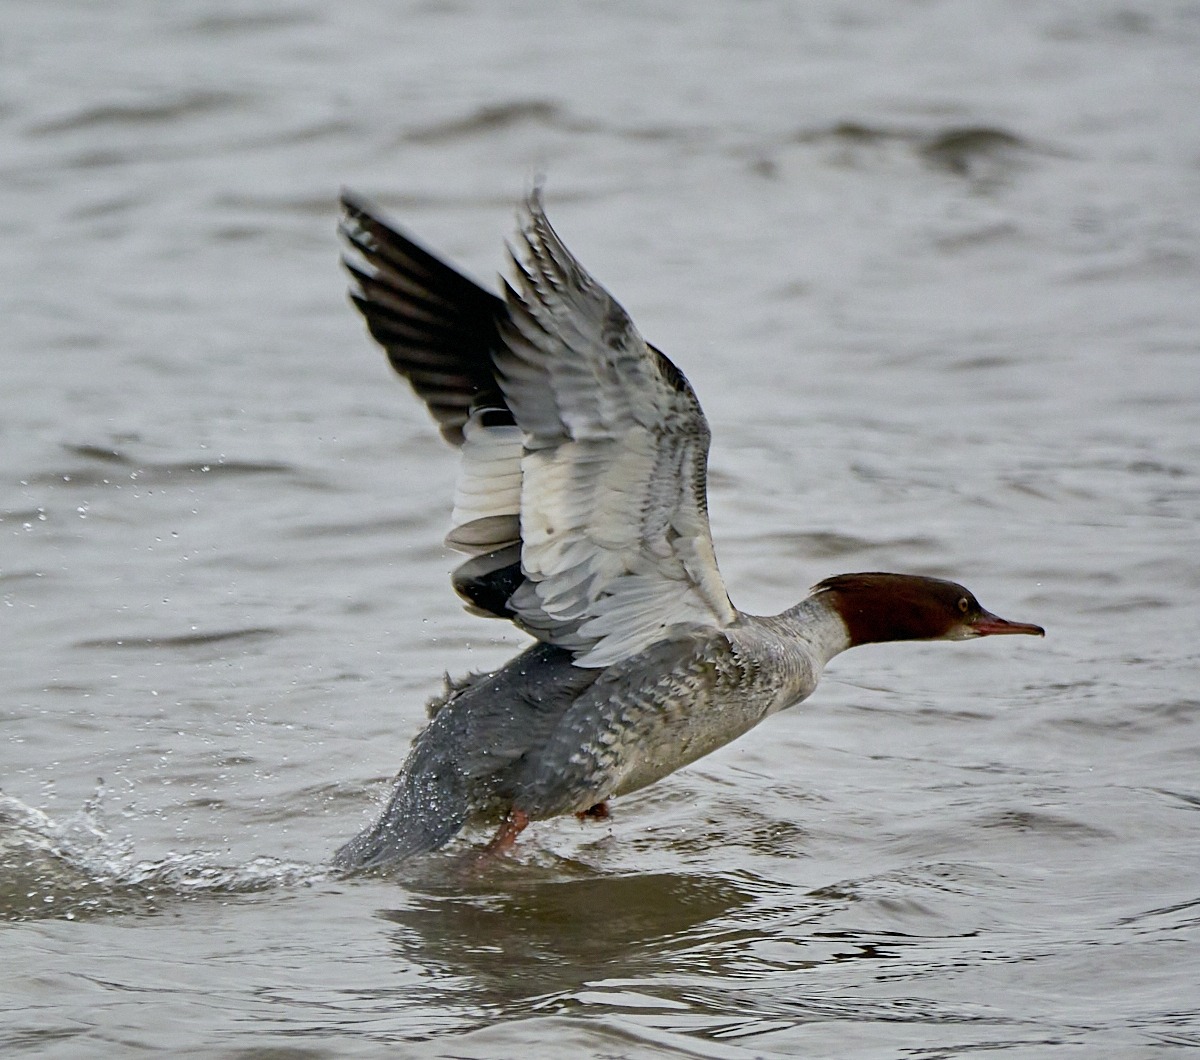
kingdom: Animalia
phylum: Chordata
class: Aves
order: Anseriformes
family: Anatidae
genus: Mergus
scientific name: Mergus merganser
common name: Stor skallesluger
